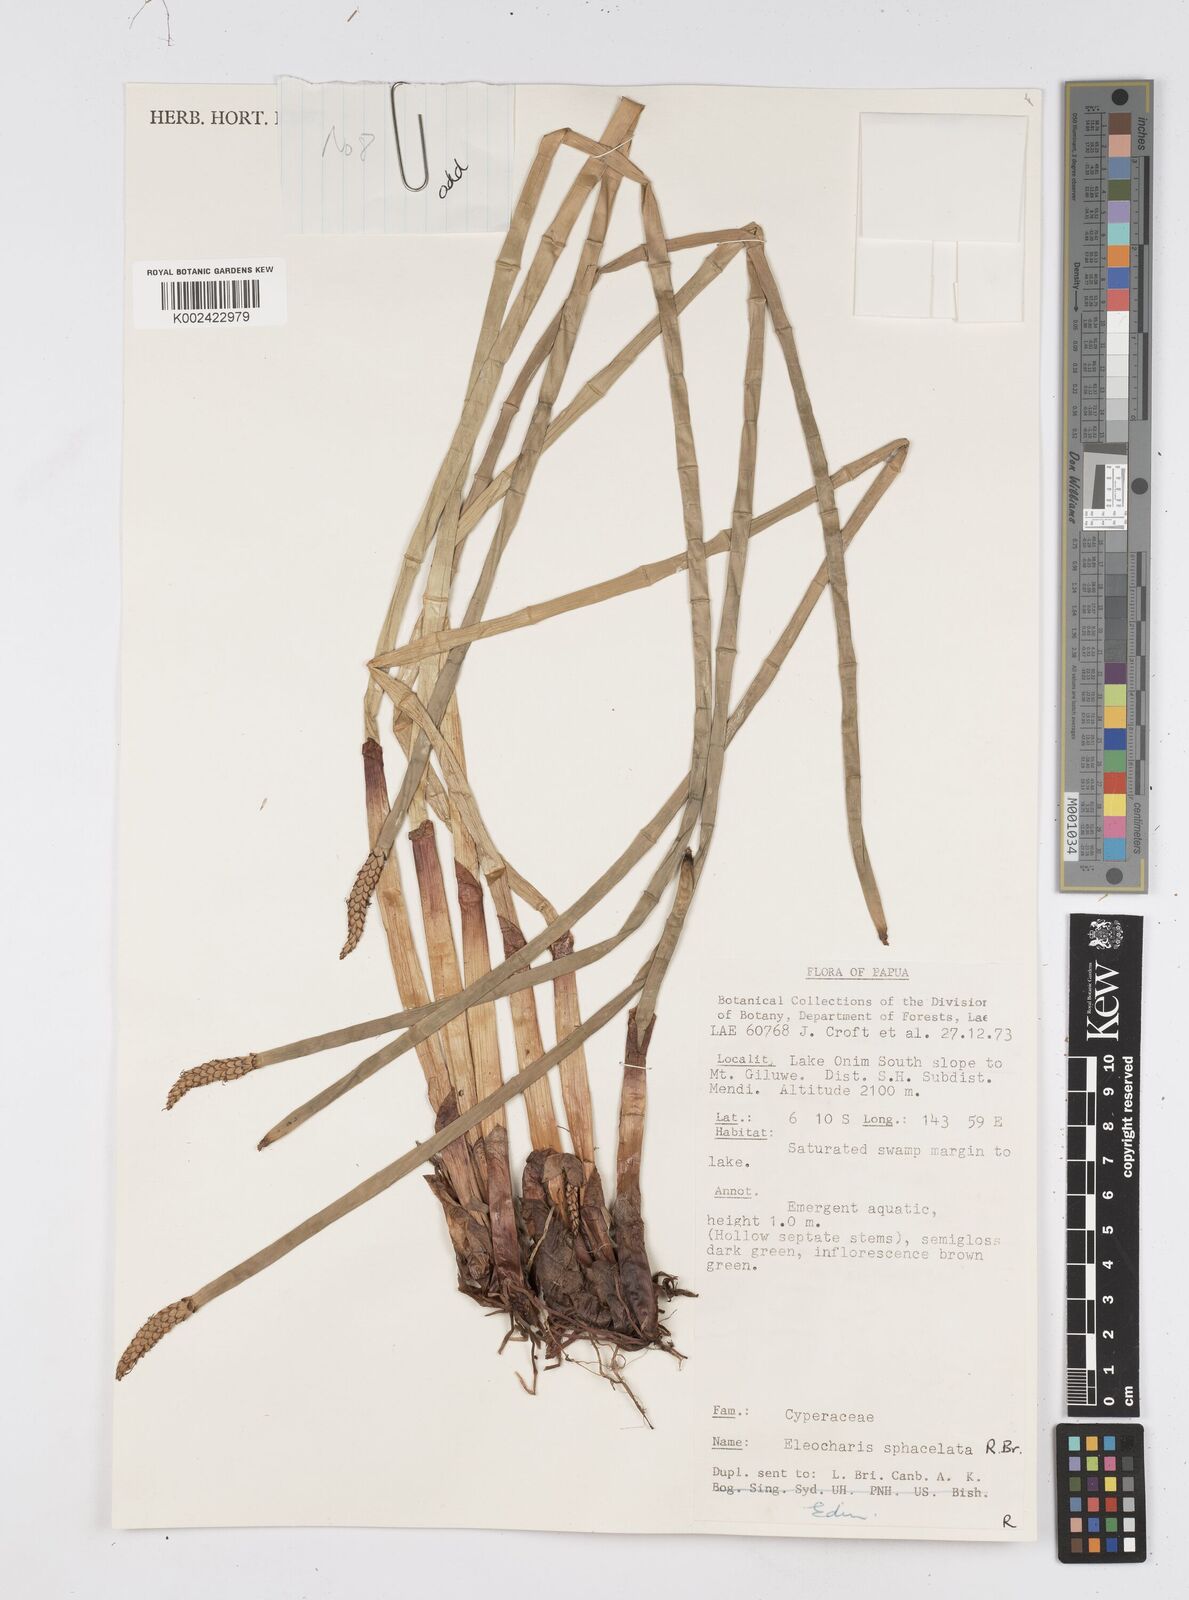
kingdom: Plantae
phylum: Tracheophyta
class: Liliopsida
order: Poales
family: Cyperaceae
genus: Eleocharis
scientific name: Eleocharis sphacelata
